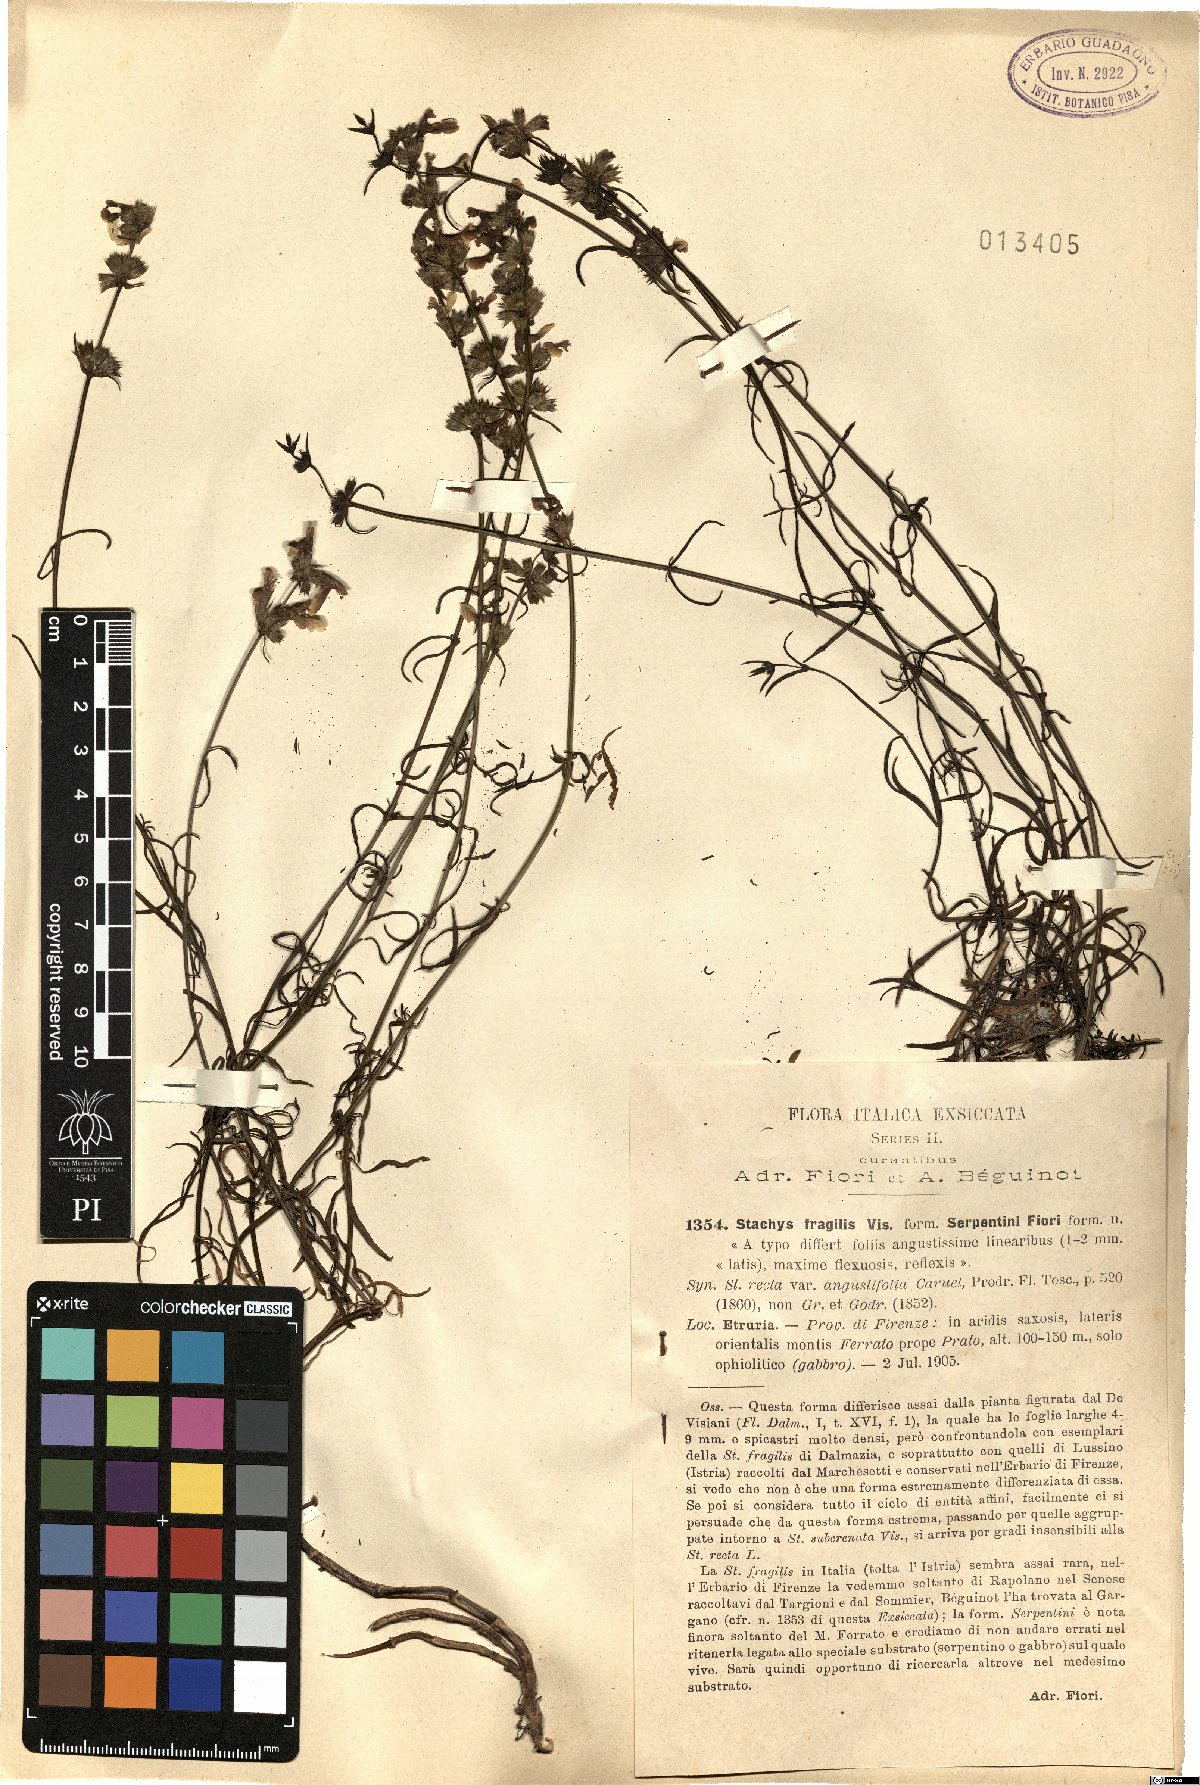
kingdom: Plantae
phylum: Tracheophyta
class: Magnoliopsida
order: Lamiales
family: Lamiaceae
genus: Stachys
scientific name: Stachys recta
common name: Perennial yellow-woundwort
